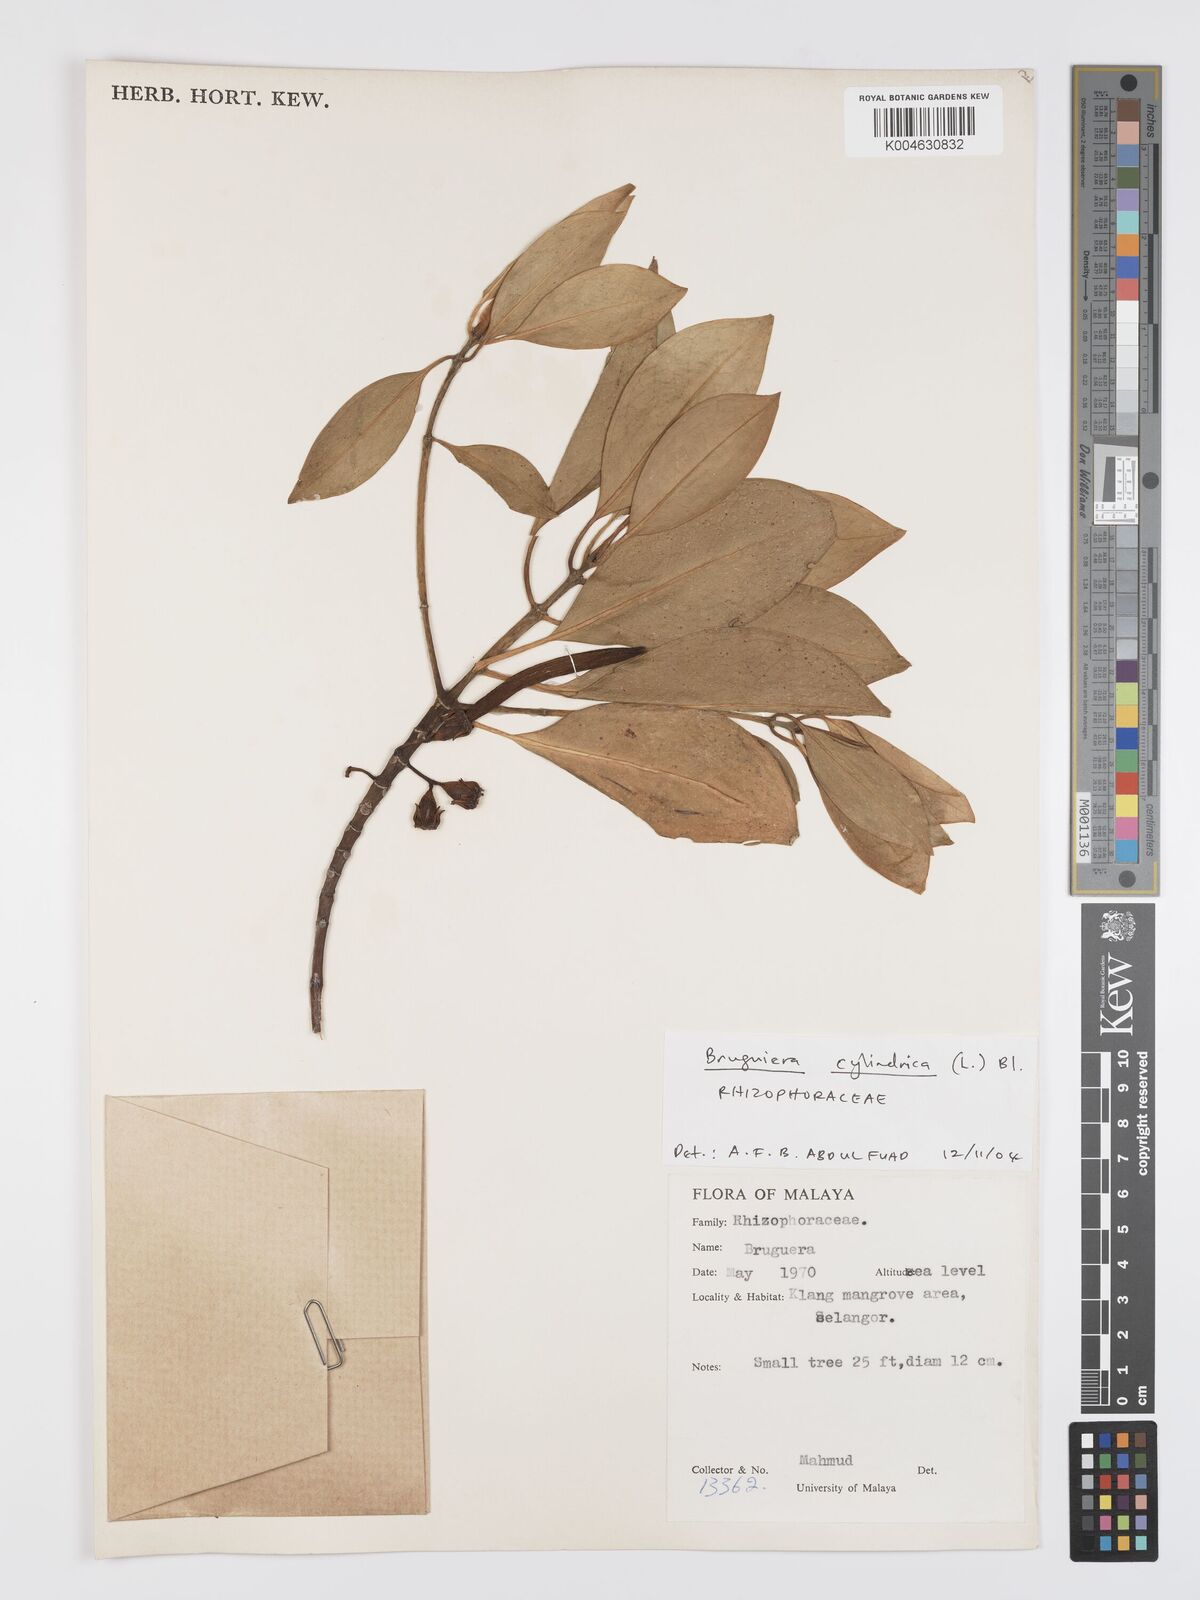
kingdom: Plantae
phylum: Tracheophyta
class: Magnoliopsida
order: Malpighiales
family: Rhizophoraceae
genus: Bruguiera
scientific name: Bruguiera
